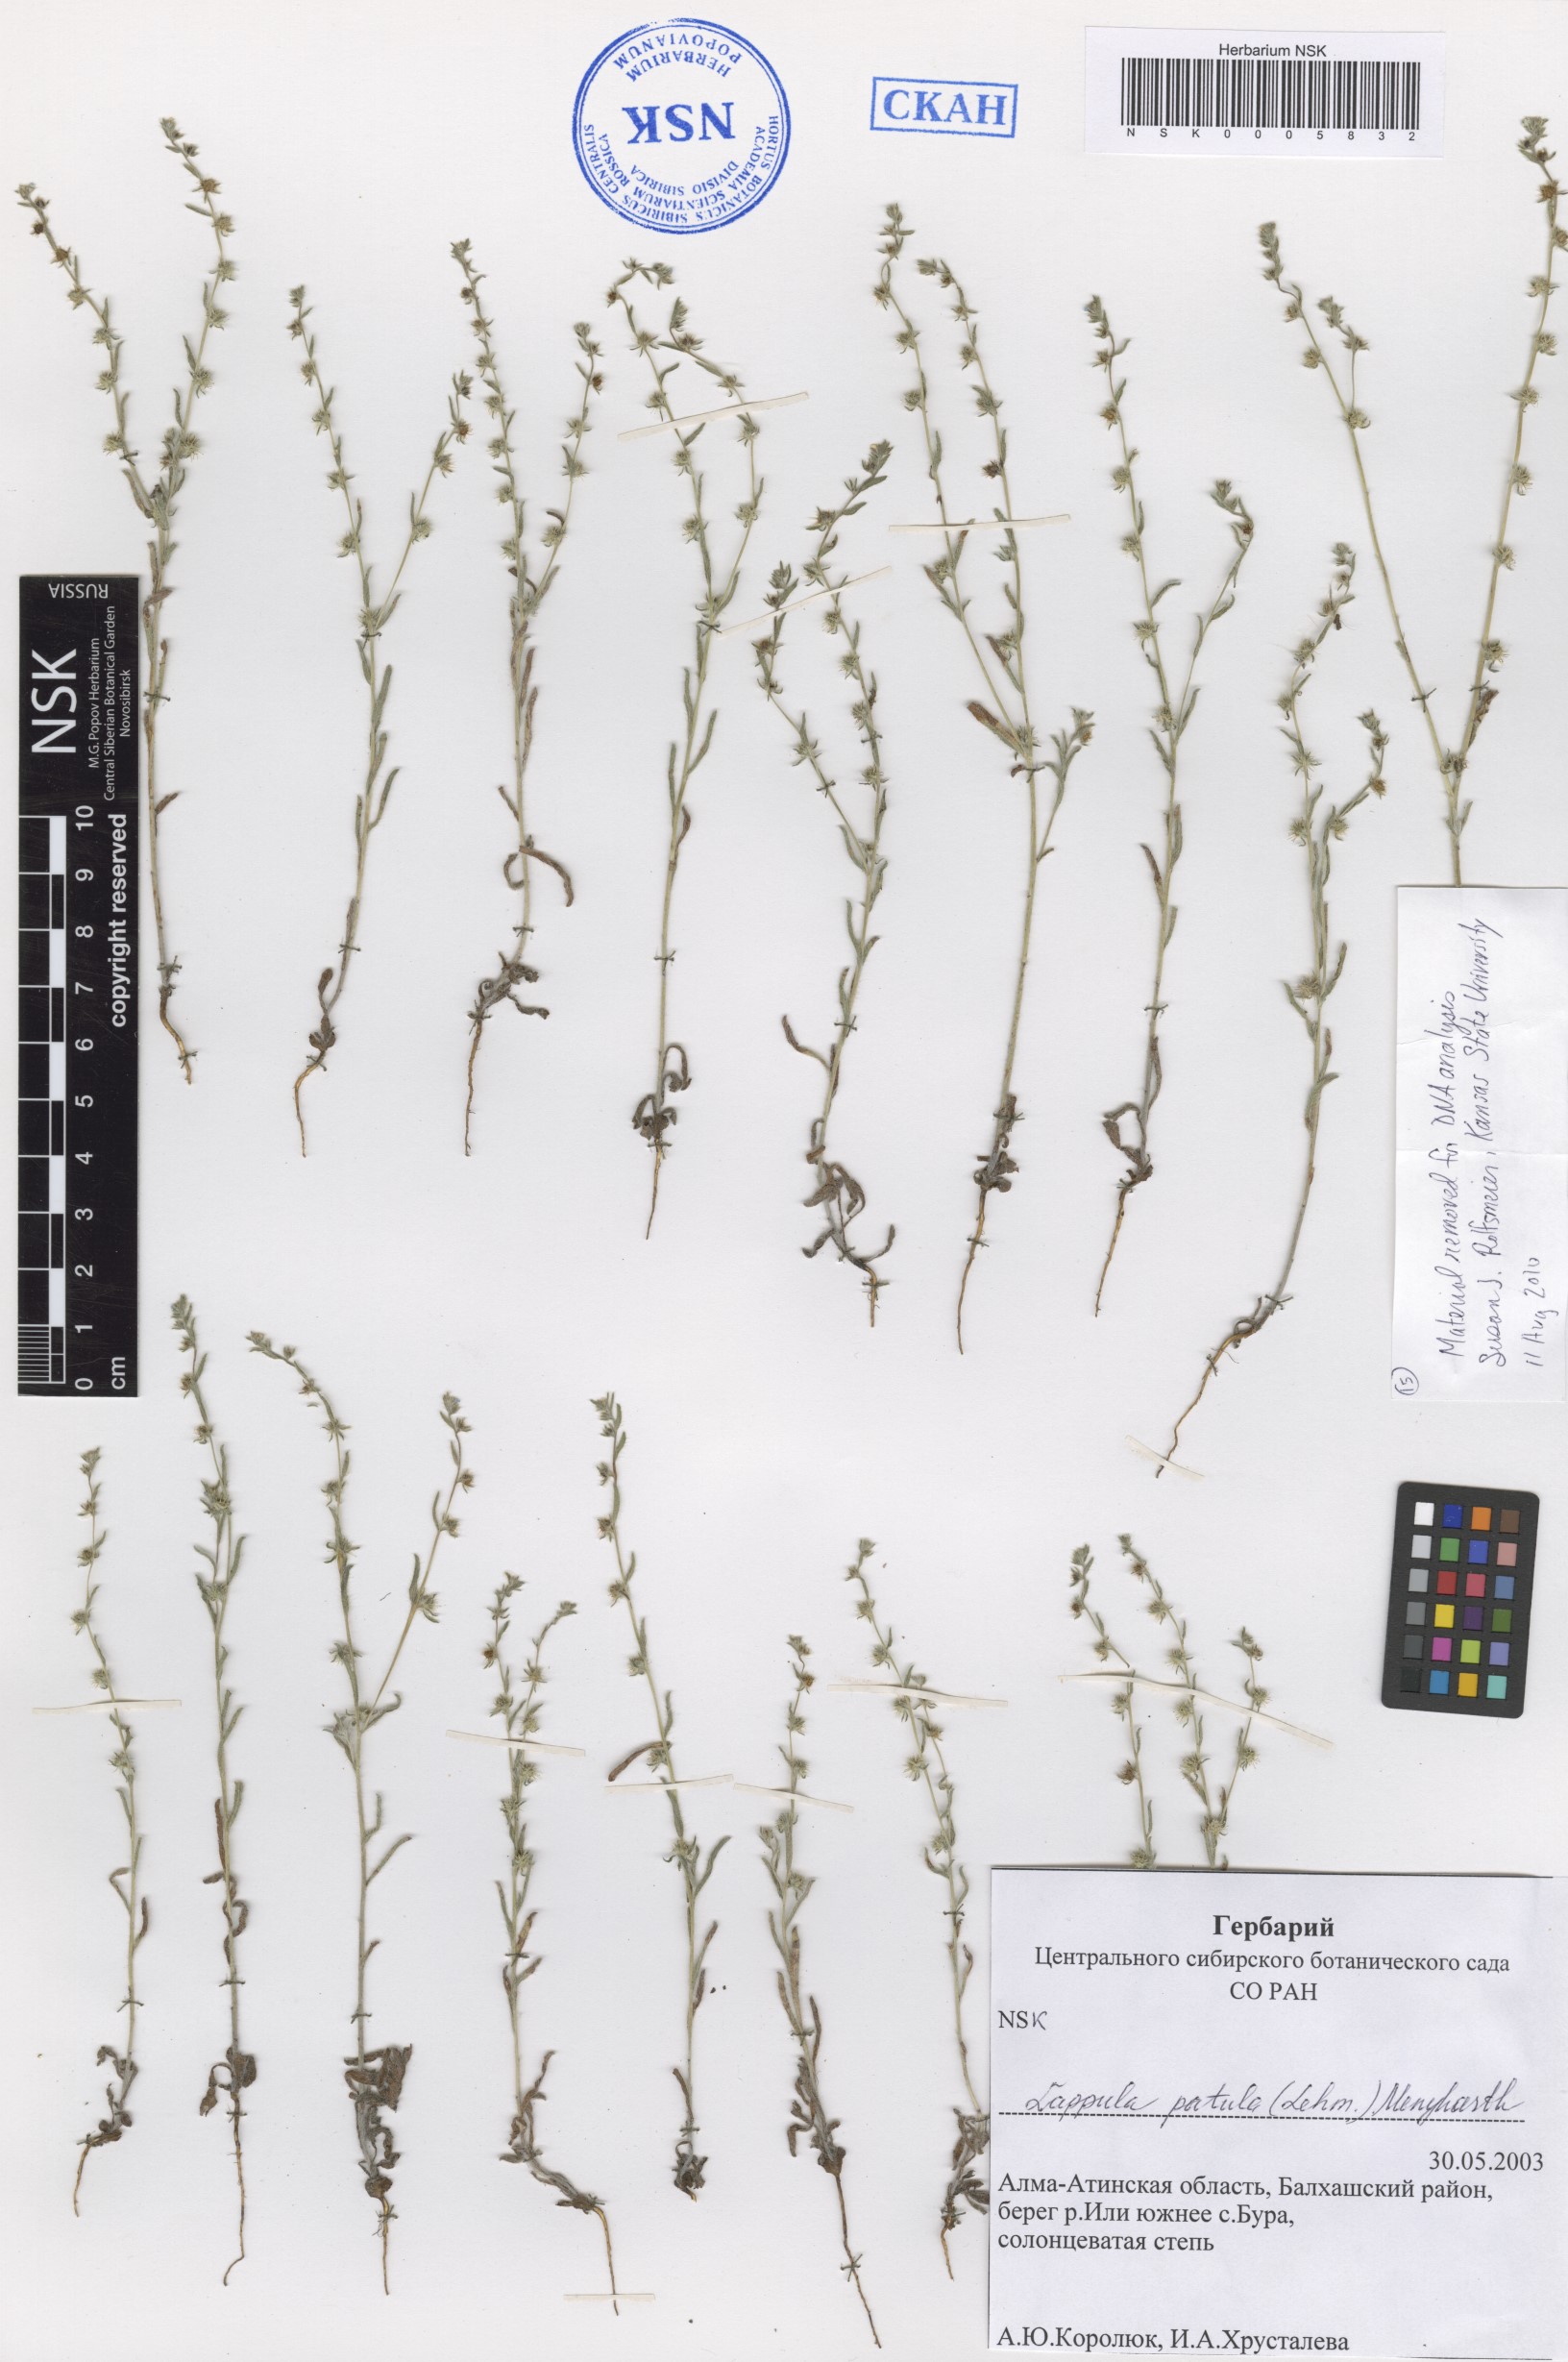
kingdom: Plantae
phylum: Tracheophyta
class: Magnoliopsida
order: Boraginales
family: Boraginaceae
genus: Lappula
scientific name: Lappula patula
